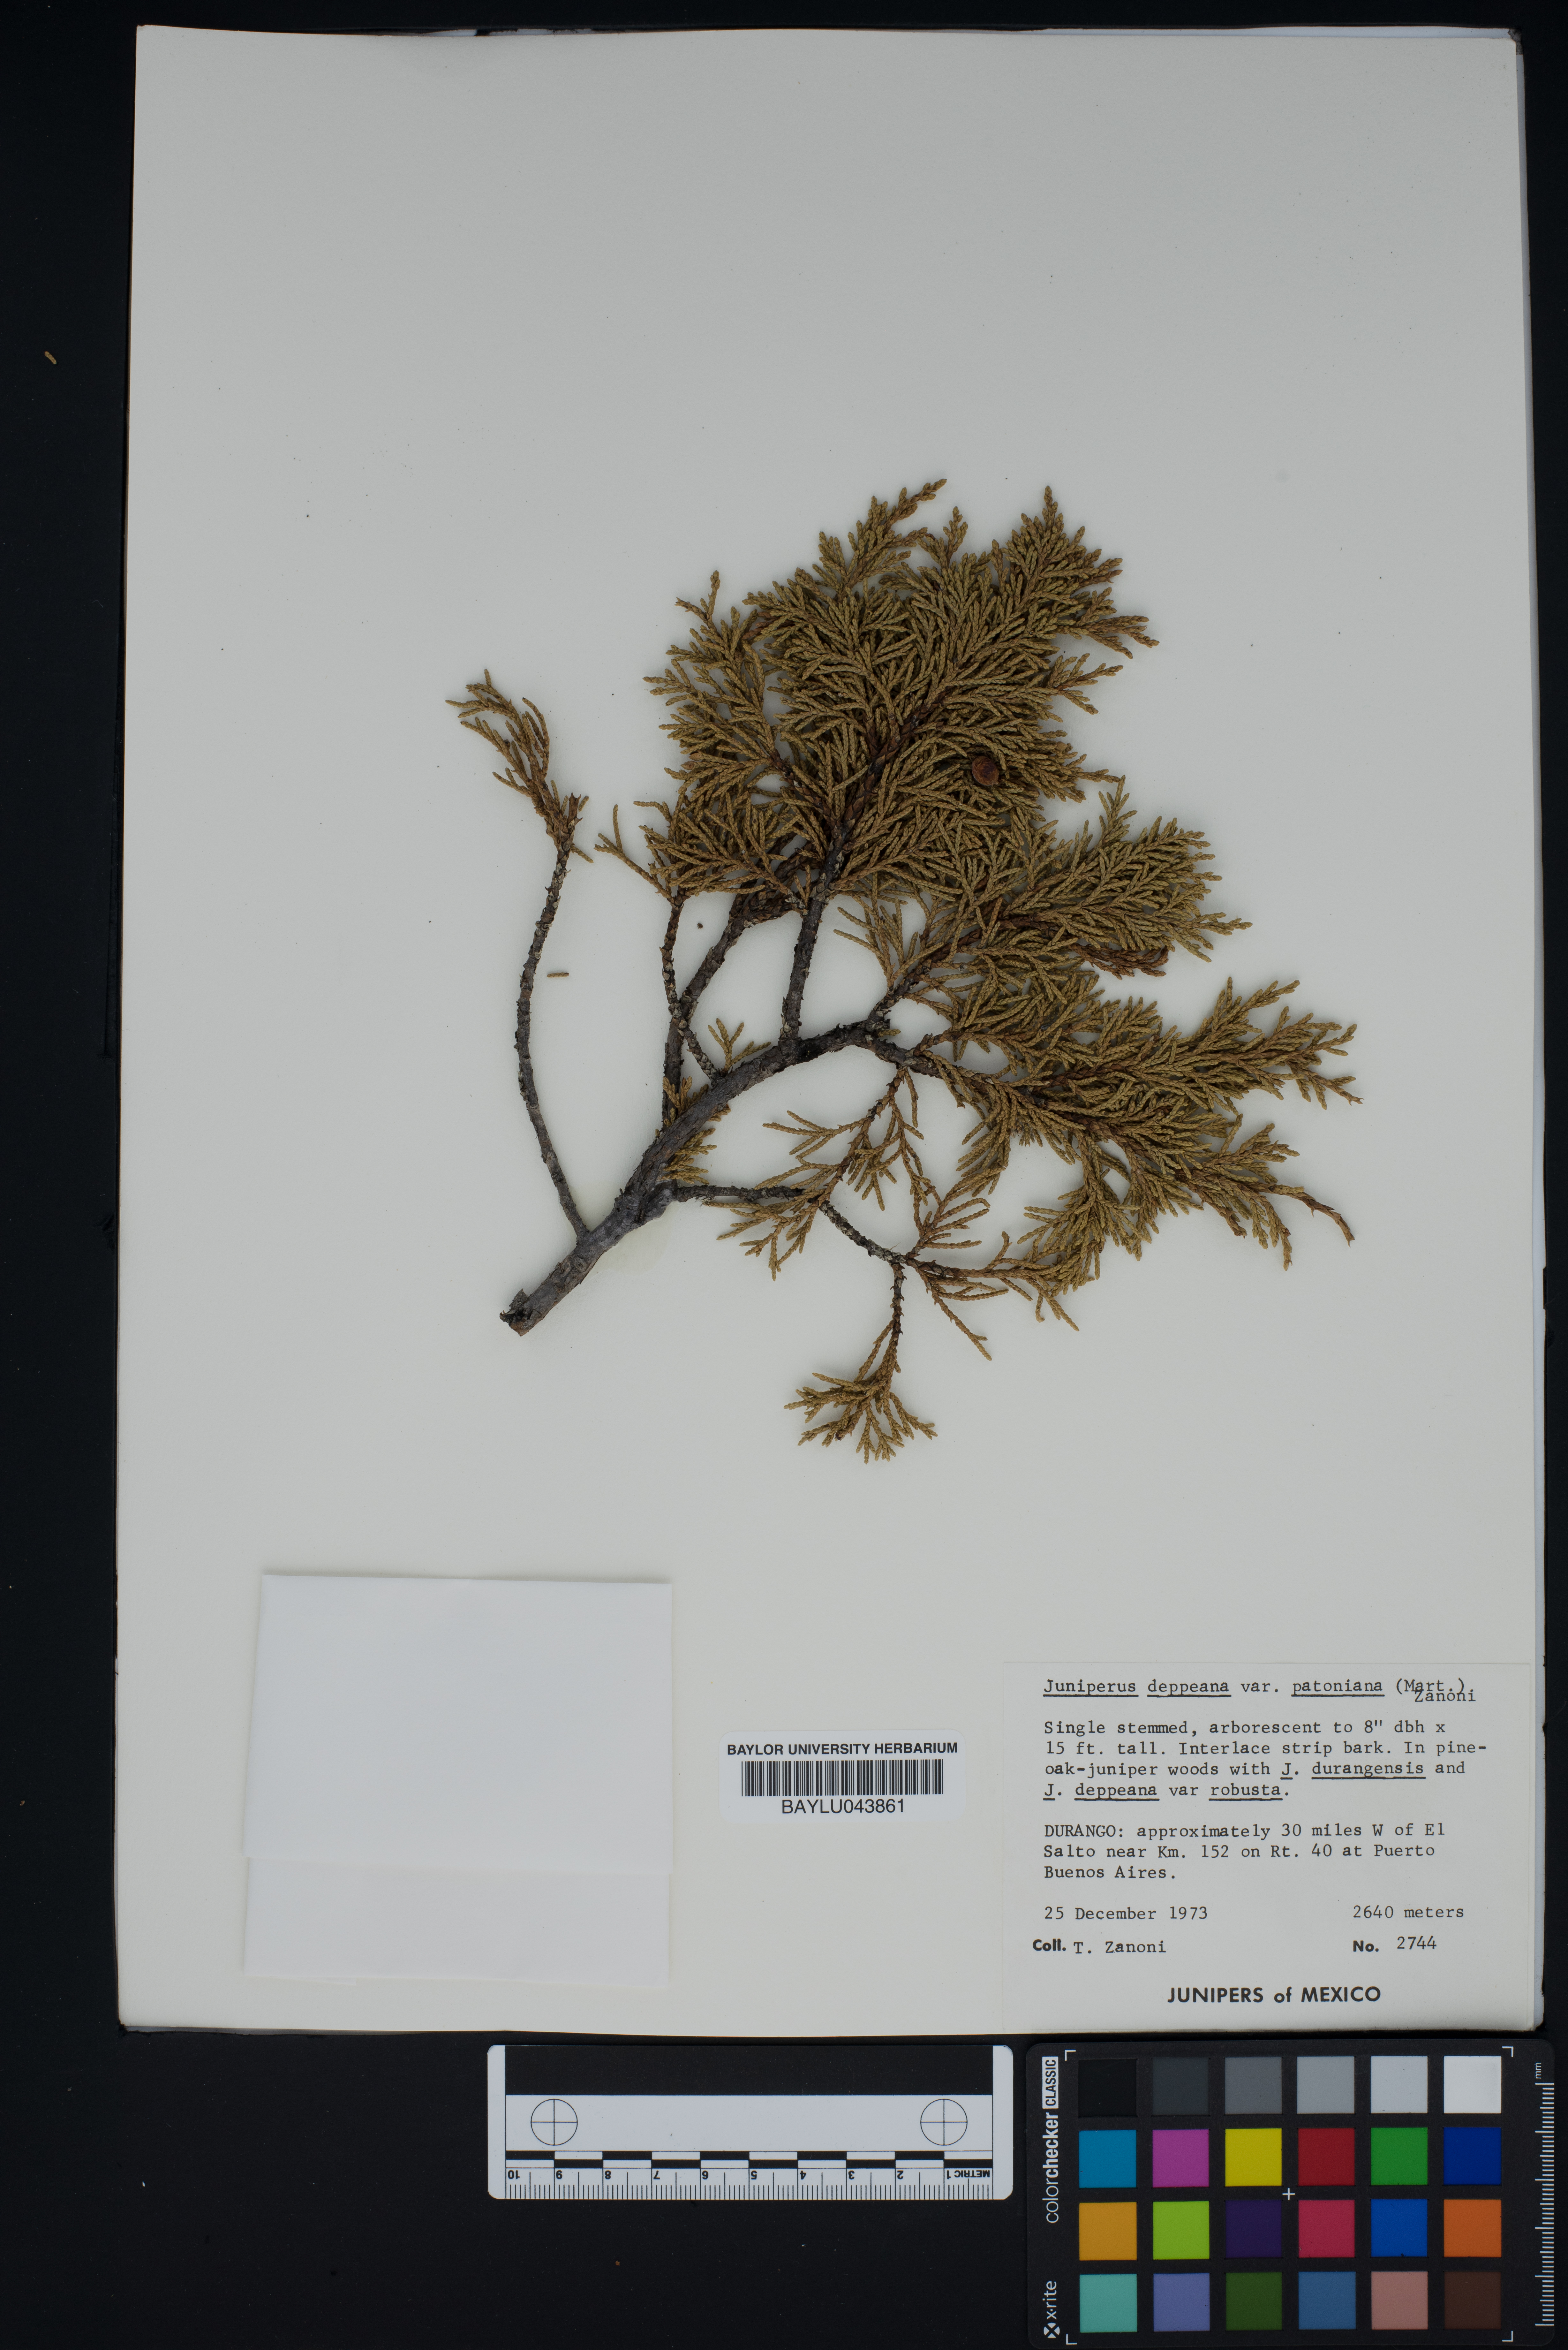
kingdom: Plantae
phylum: Tracheophyta
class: Pinopsida
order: Pinales
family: Cupressaceae
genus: Juniperus
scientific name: Juniperus deppeana
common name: Alligator juniper
